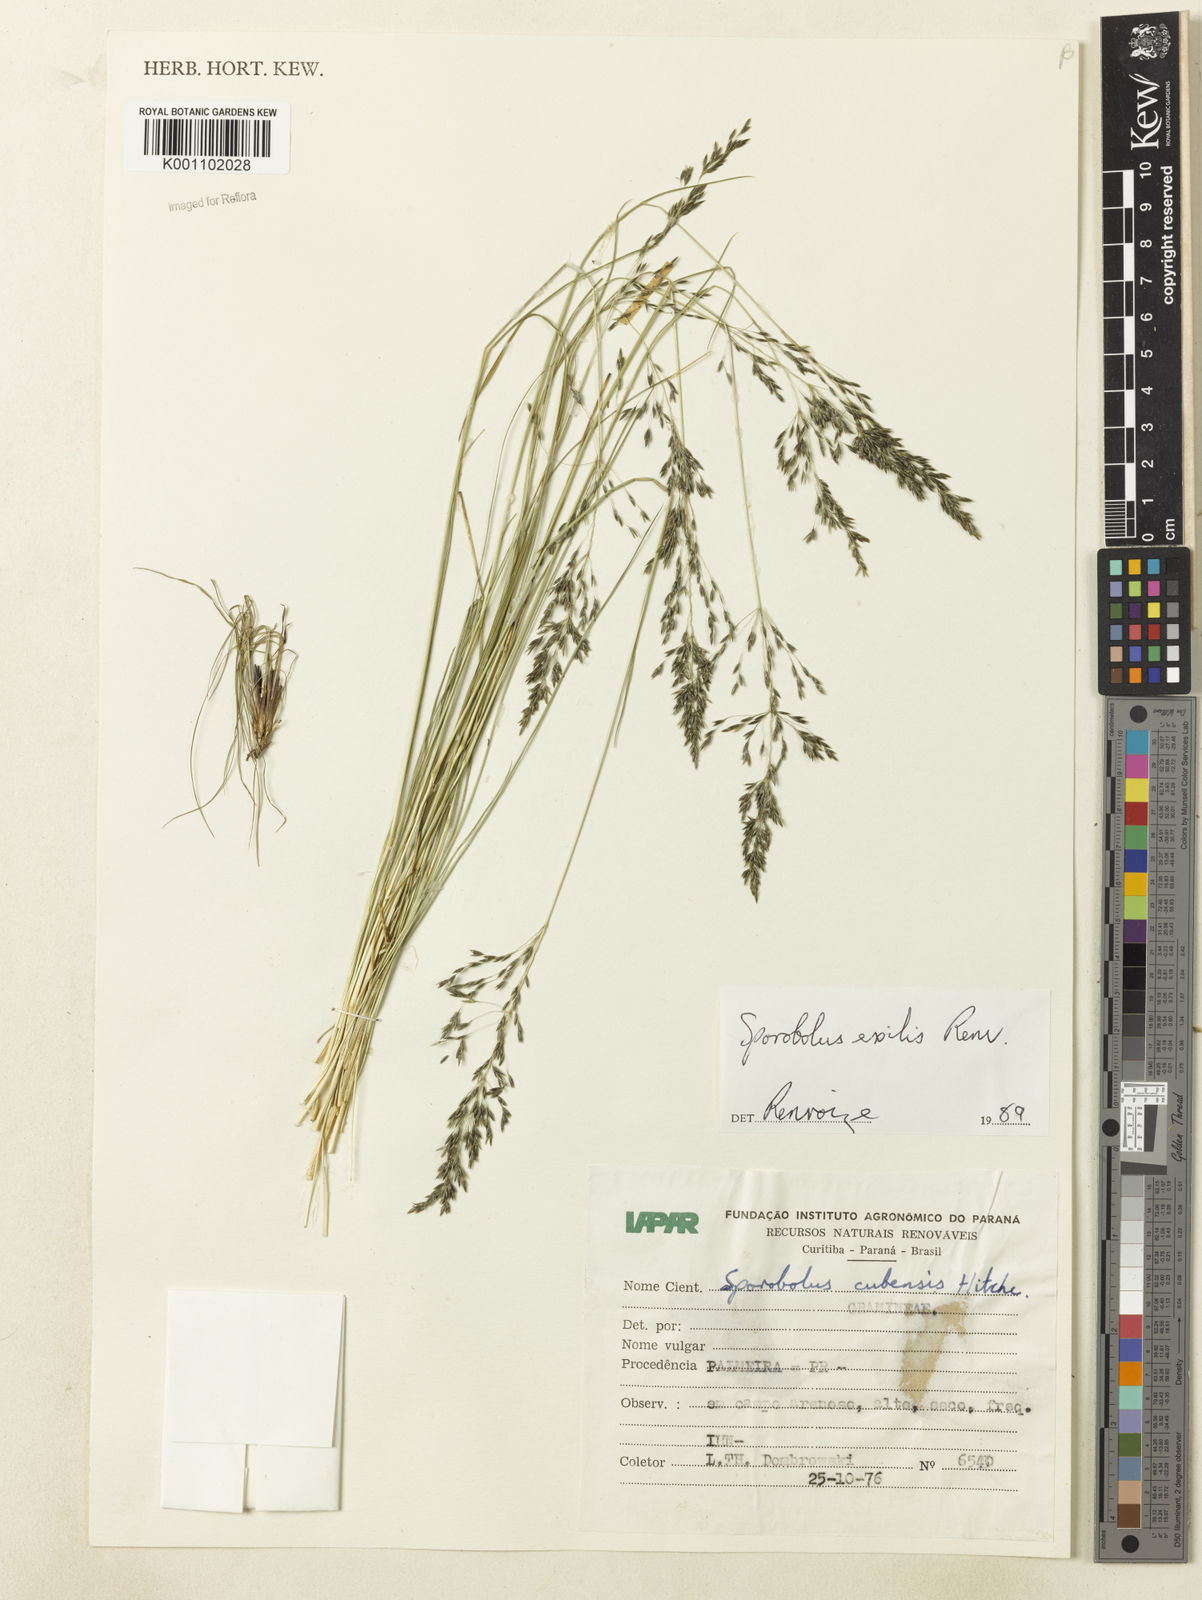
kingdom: Plantae
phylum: Tracheophyta
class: Liliopsida
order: Poales
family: Poaceae
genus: Sporobolus
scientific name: Sporobolus linearifolius
